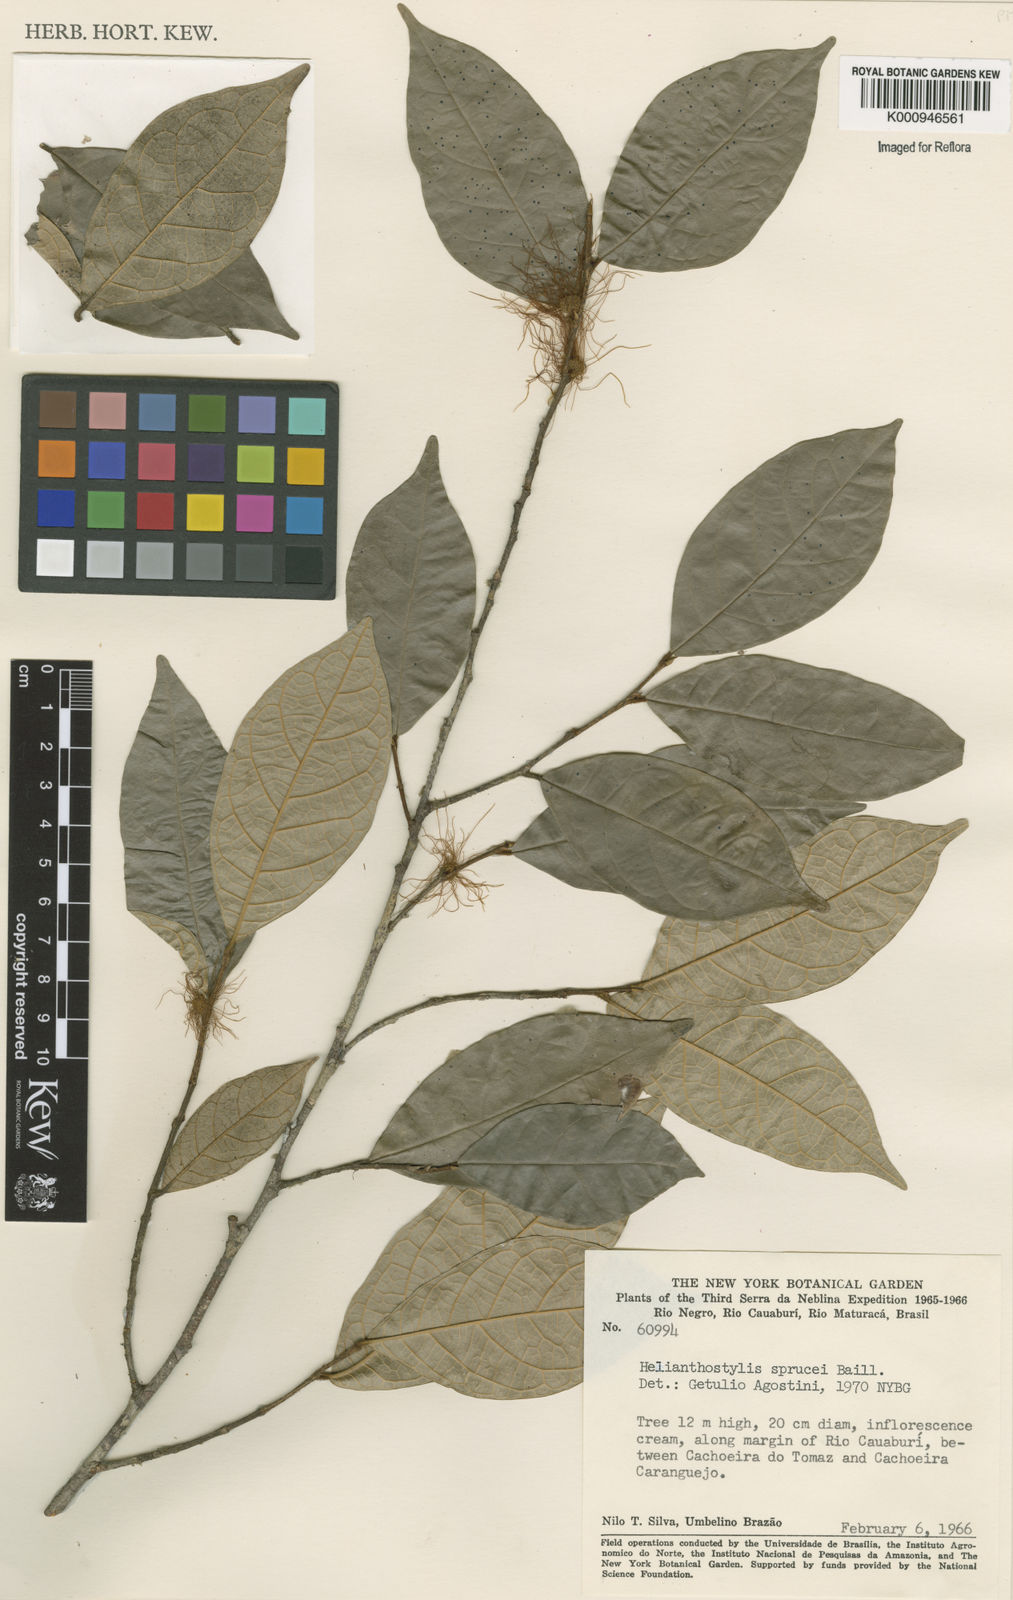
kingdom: Plantae
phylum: Tracheophyta
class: Magnoliopsida
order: Rosales
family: Moraceae
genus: Brosimum
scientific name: Brosimum sprucei
